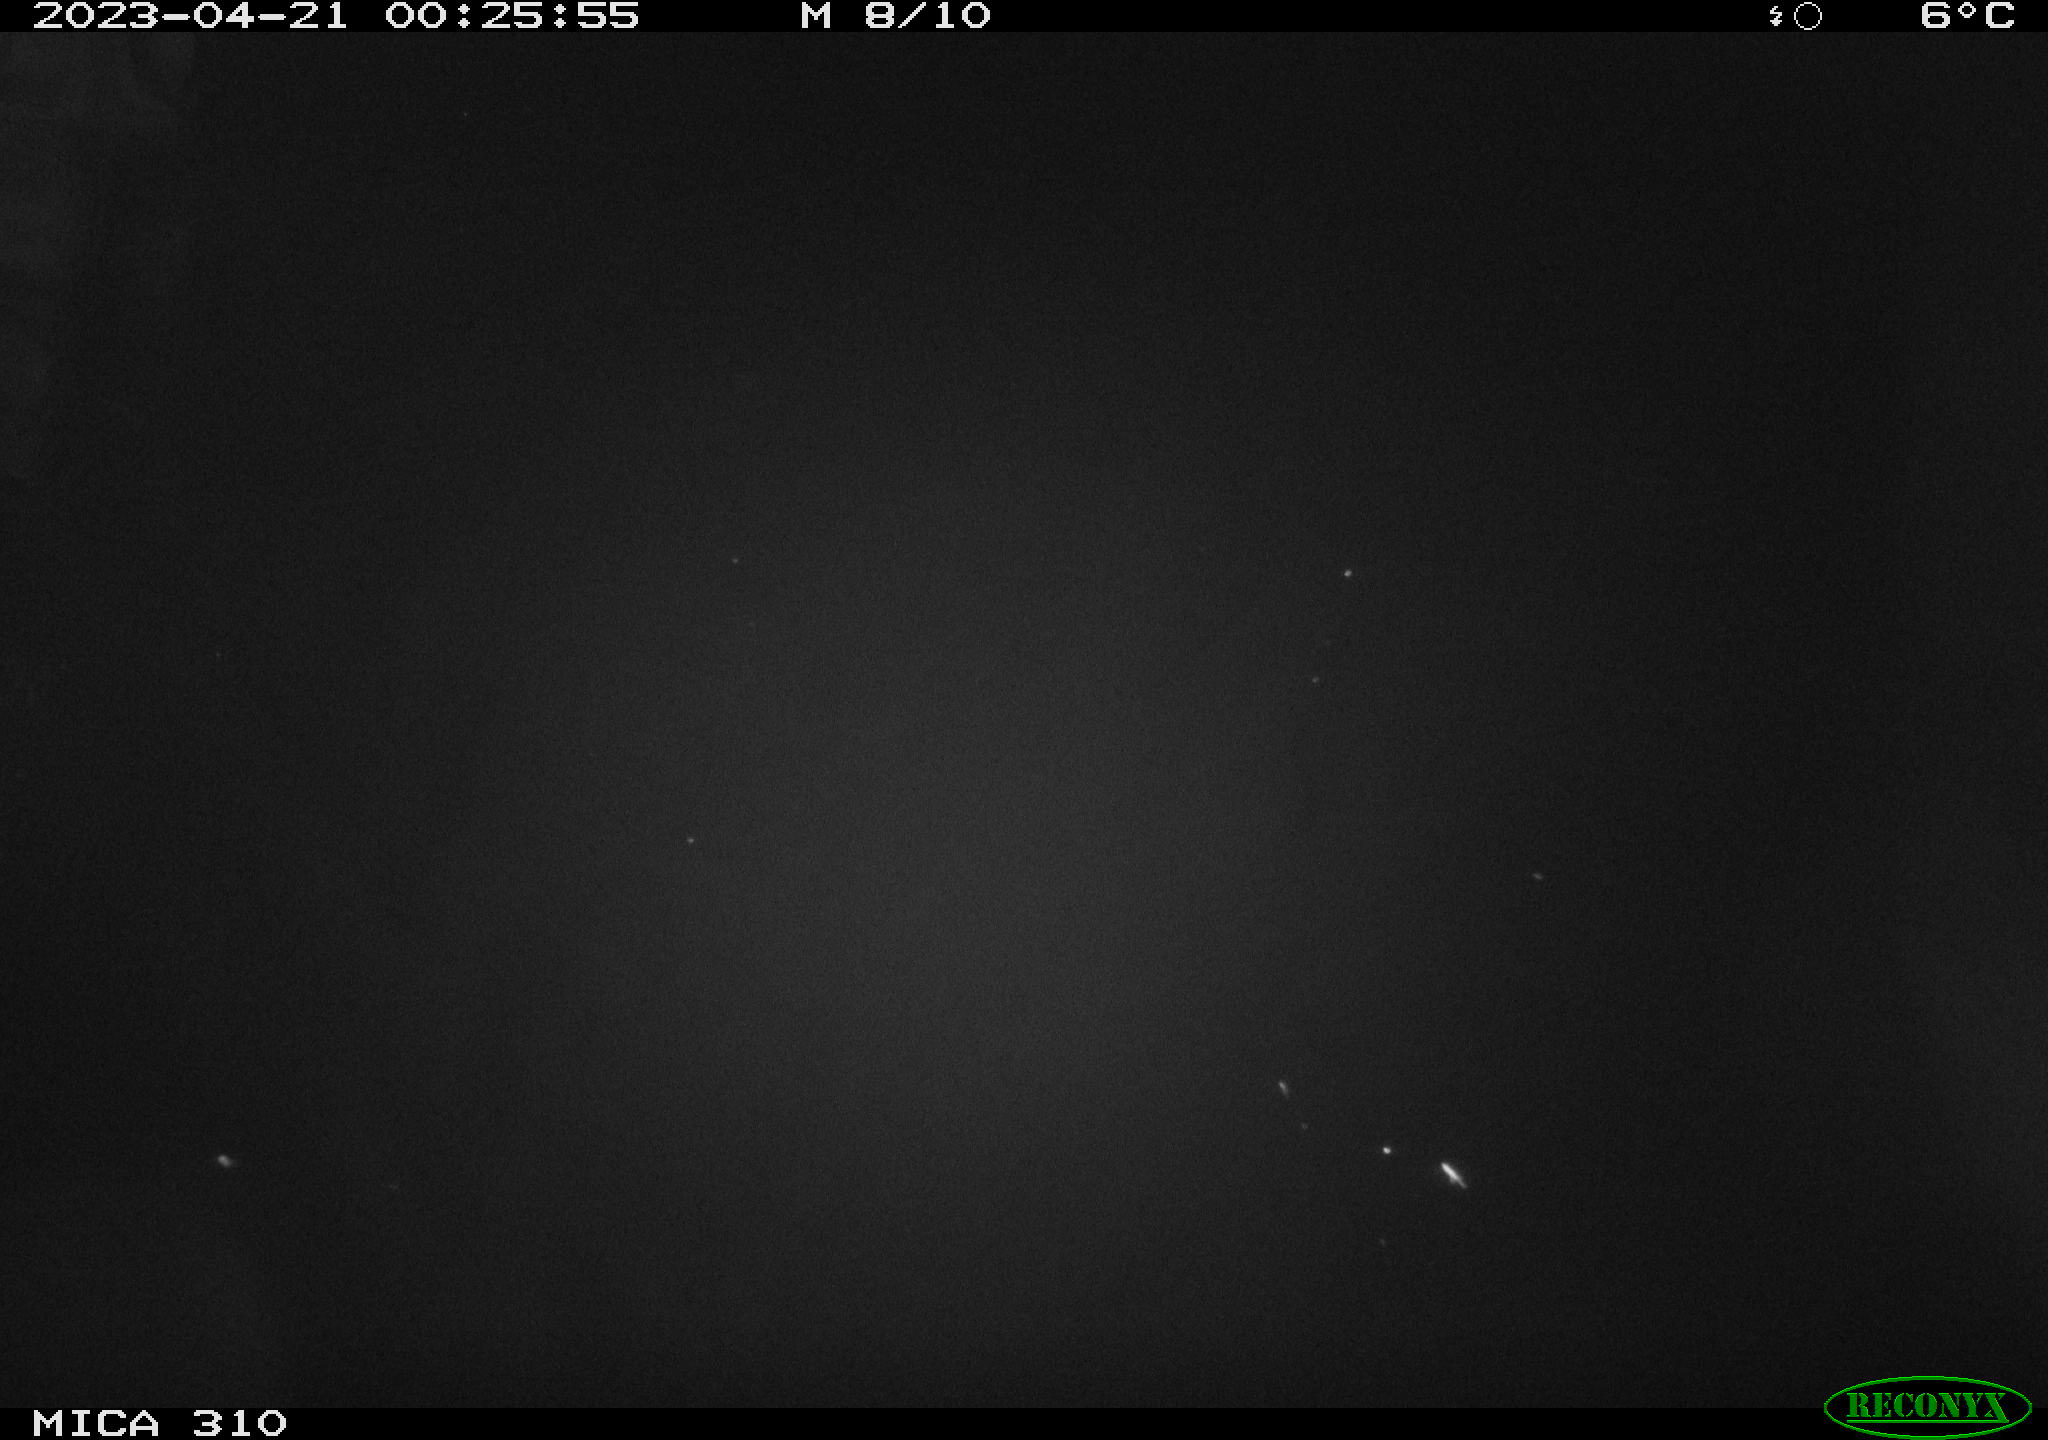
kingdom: Animalia
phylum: Chordata
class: Mammalia
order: Rodentia
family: Cricetidae
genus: Ondatra
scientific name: Ondatra zibethicus
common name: Muskrat
